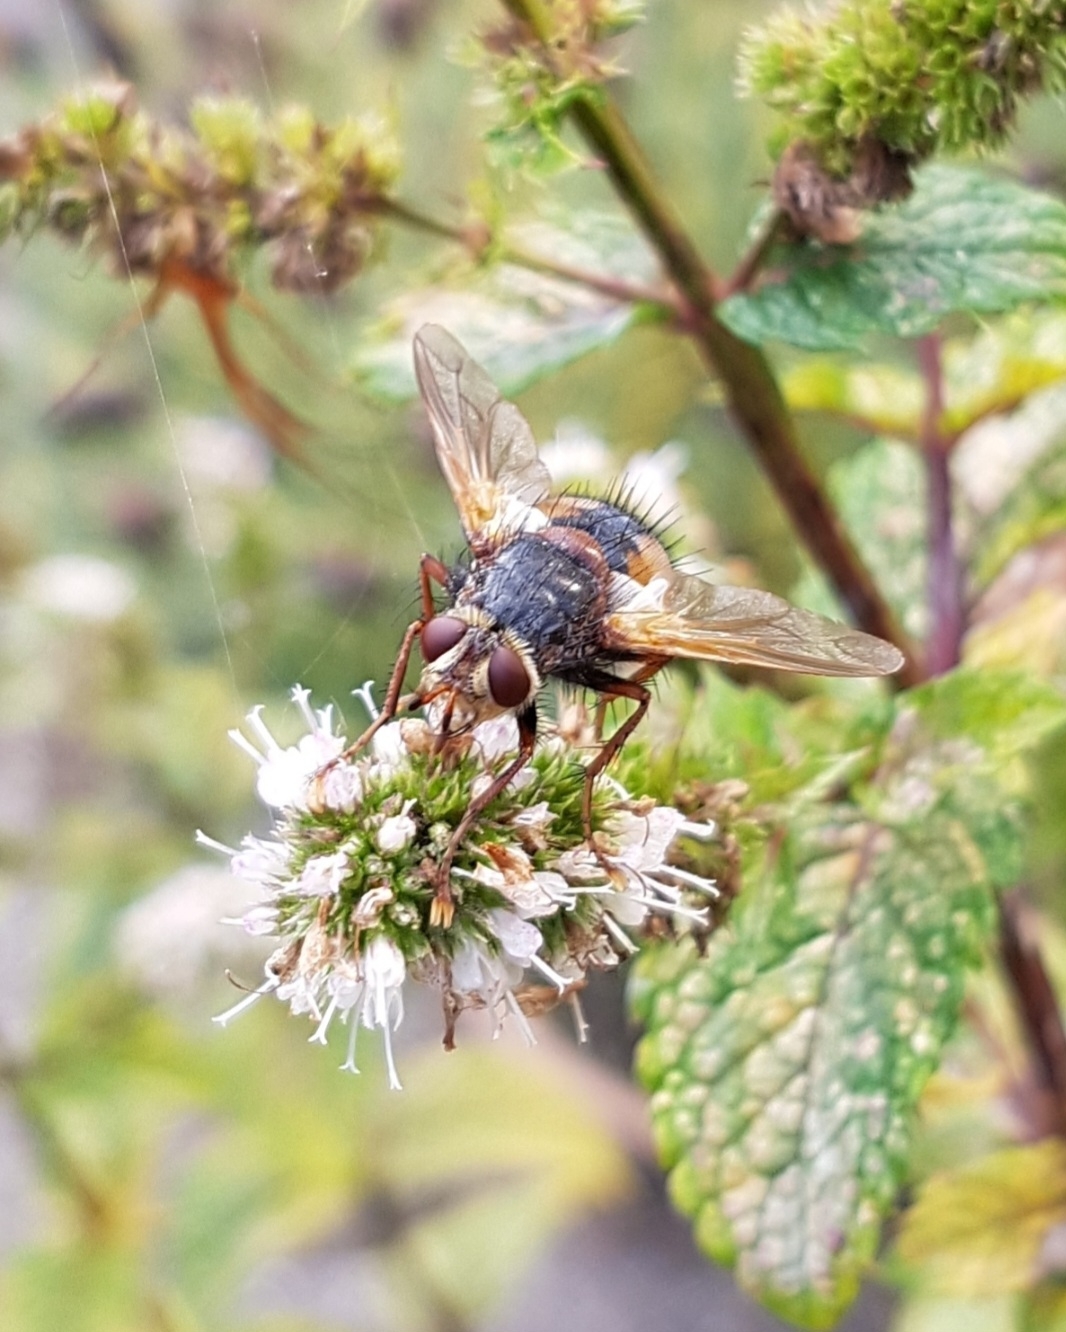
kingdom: Animalia
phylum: Arthropoda
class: Insecta
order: Diptera
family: Tachinidae
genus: Tachina
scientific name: Tachina fera
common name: Mellemfluen oskar
